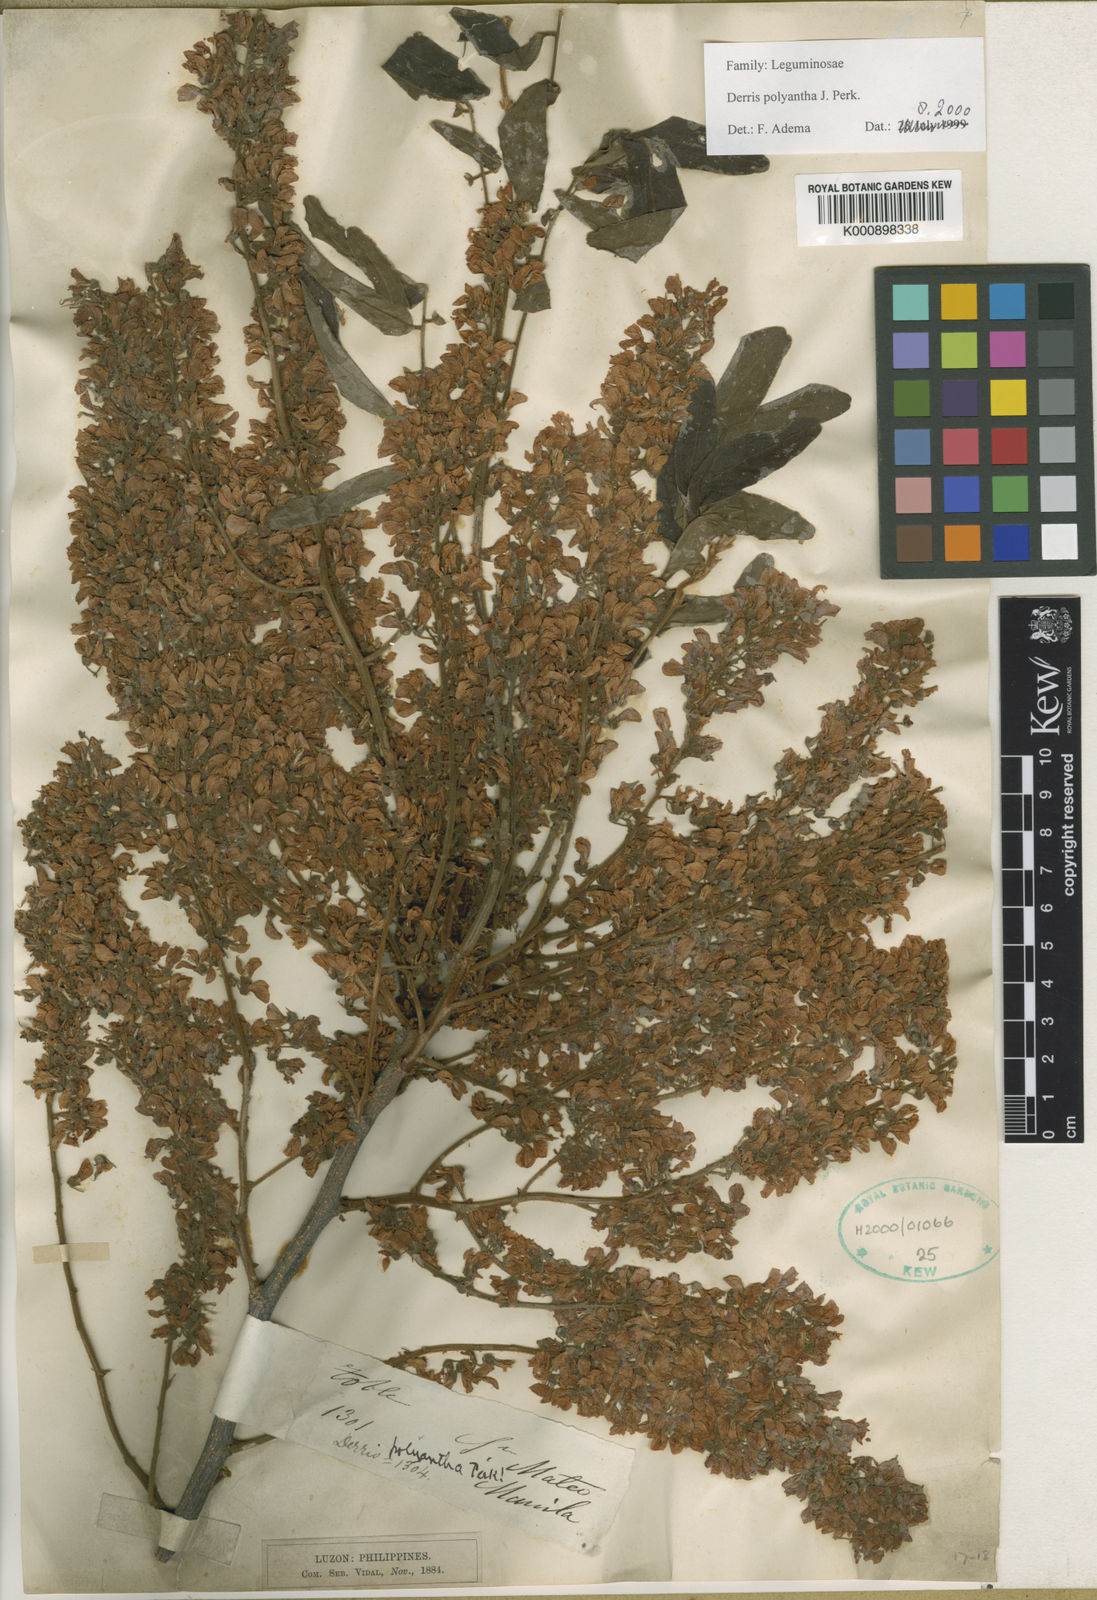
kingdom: Plantae
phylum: Tracheophyta
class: Magnoliopsida
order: Fabales
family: Fabaceae
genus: Derris
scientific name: Derris polyantha
